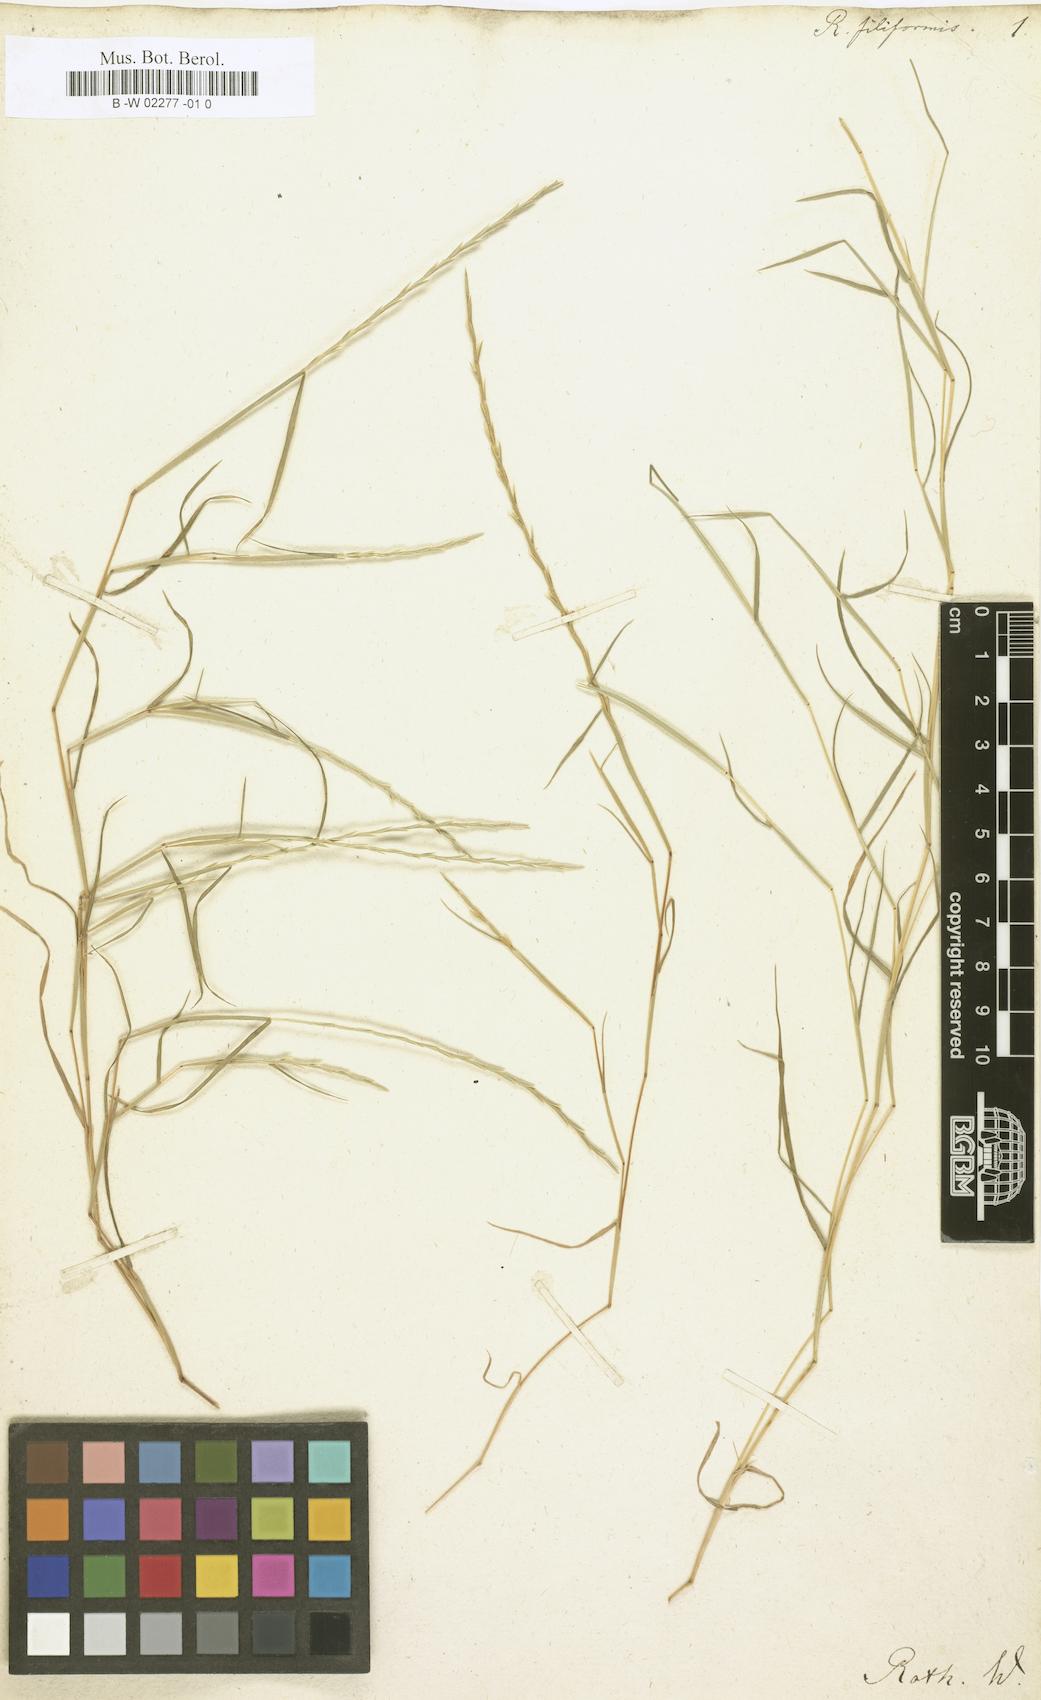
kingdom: Plantae
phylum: Tracheophyta
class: Liliopsida
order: Poales
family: Poaceae
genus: Parapholis
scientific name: Parapholis filiformis
